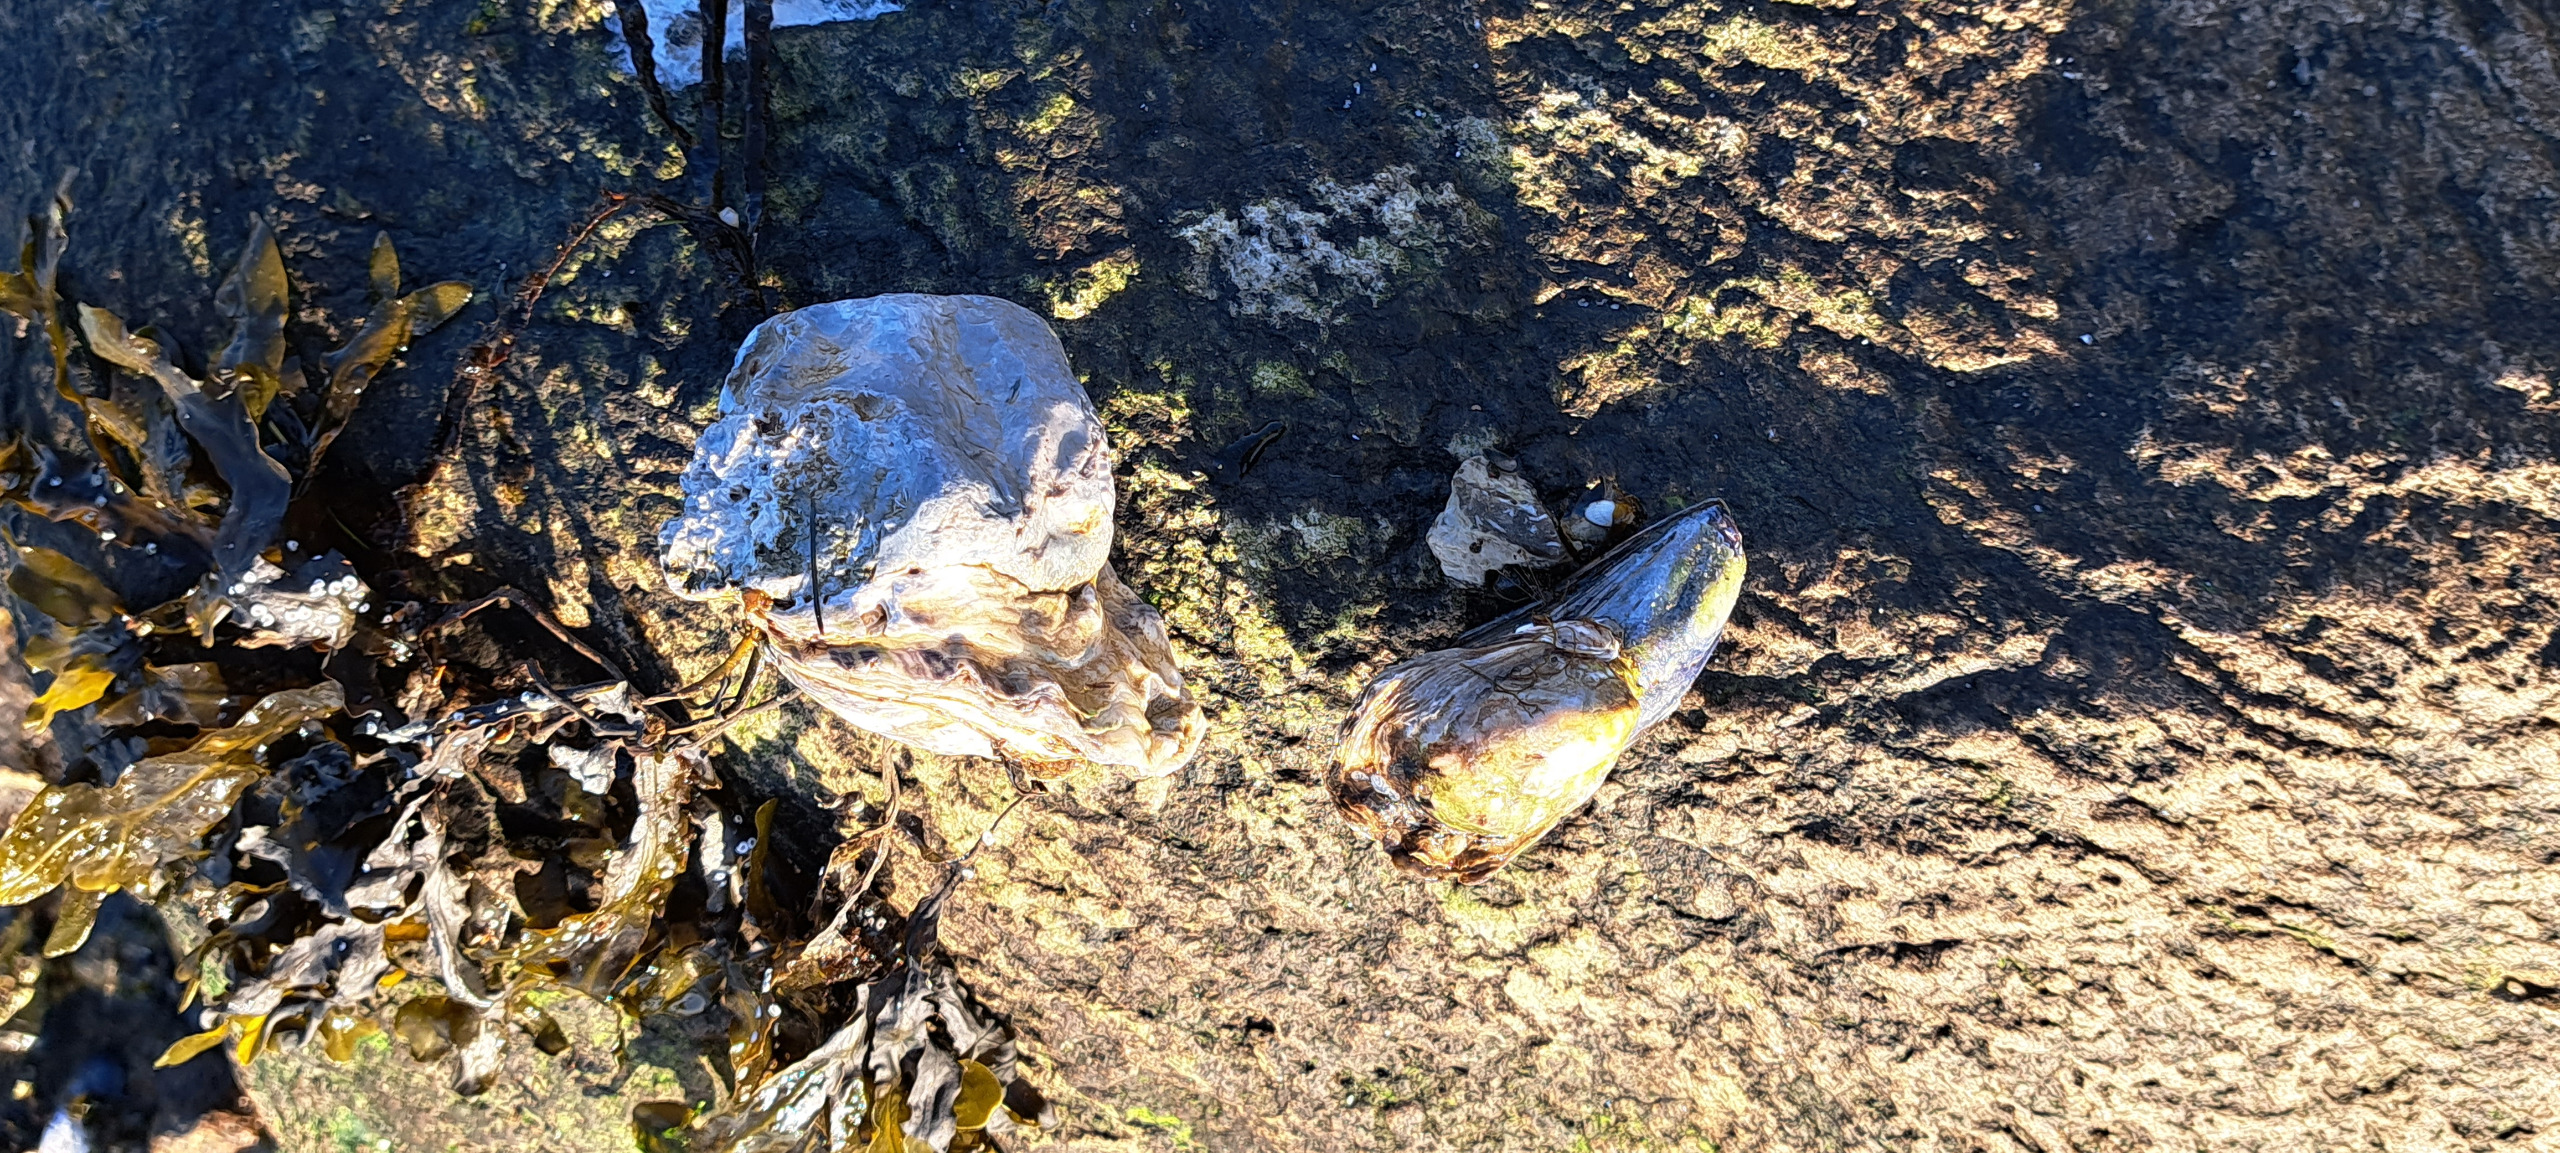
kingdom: Animalia
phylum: Mollusca
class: Bivalvia
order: Ostreida
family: Ostreidae
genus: Magallana
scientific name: Magallana gigas
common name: Stillehavsøsters
